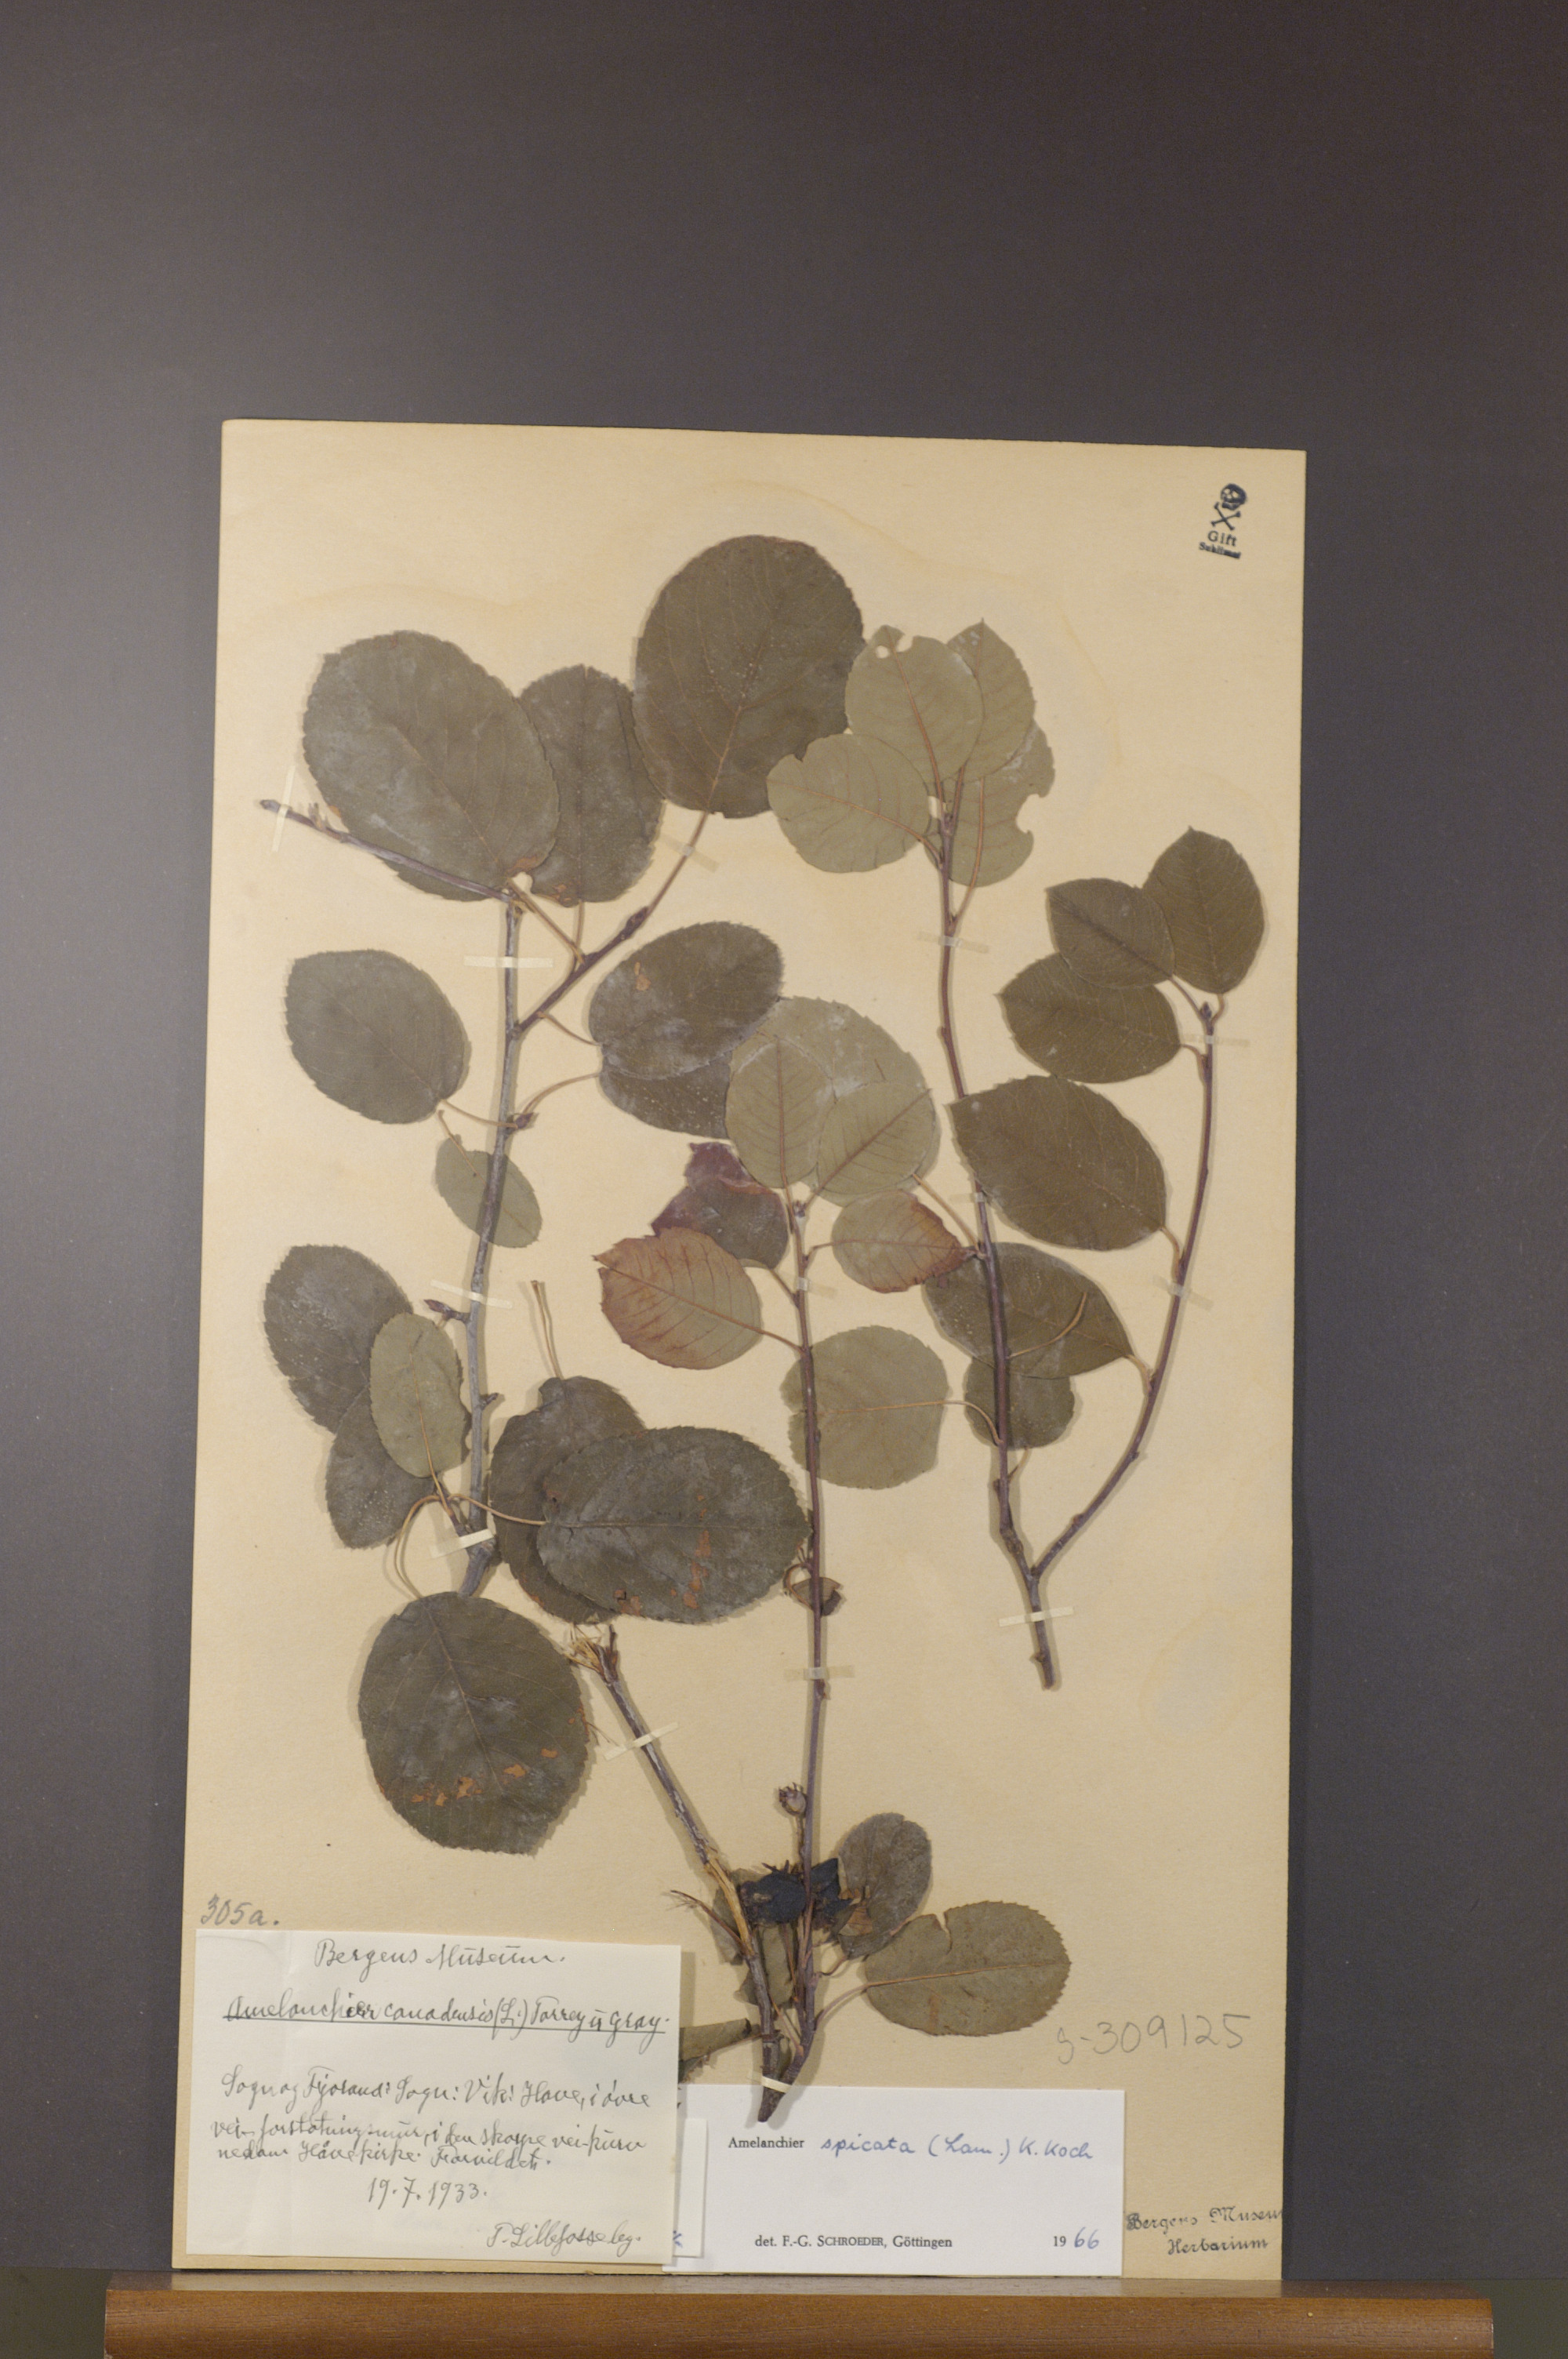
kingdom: Plantae
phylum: Tracheophyta
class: Magnoliopsida
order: Rosales
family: Rosaceae
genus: Amelanchier
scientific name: Amelanchier humilis
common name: Low juneberry
